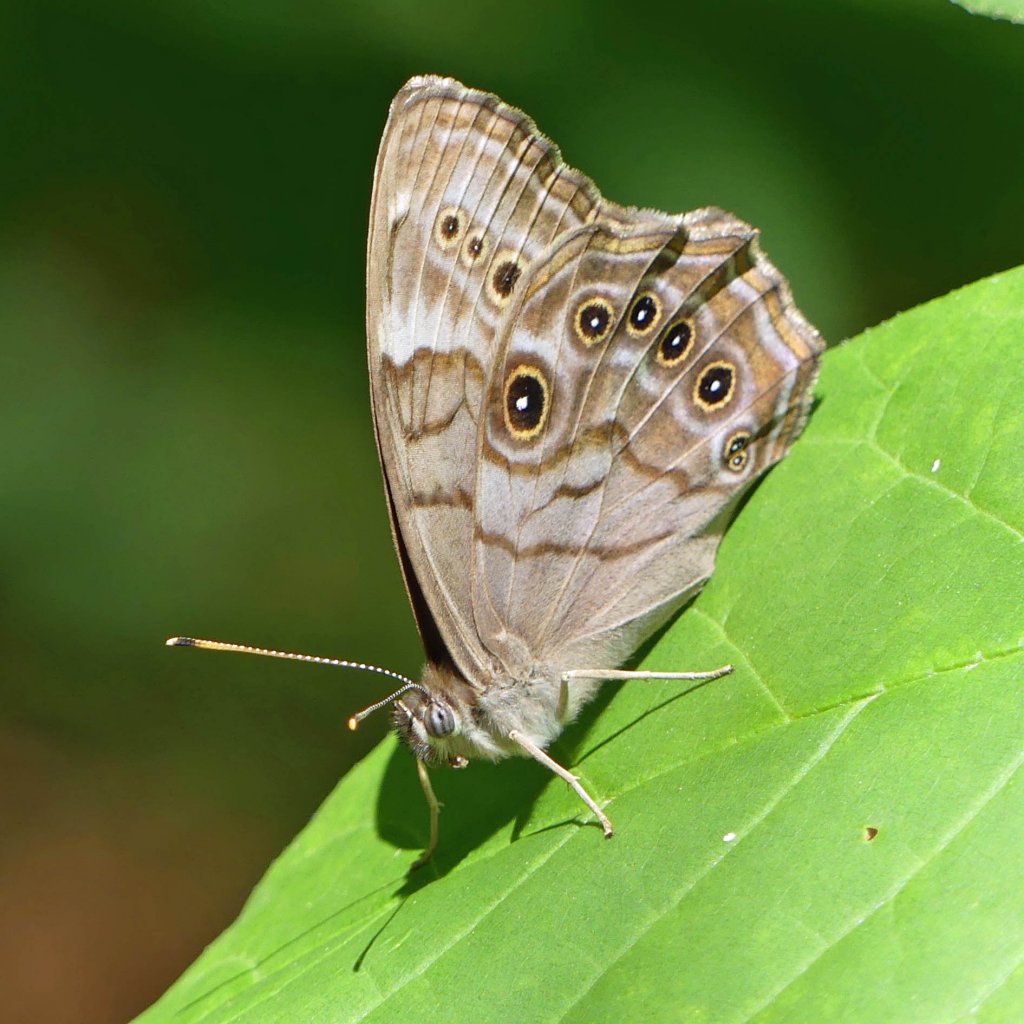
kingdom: Animalia
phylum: Arthropoda
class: Insecta
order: Lepidoptera
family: Nymphalidae
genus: Lethe
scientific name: Lethe anthedon
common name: Northern Pearly-Eye
